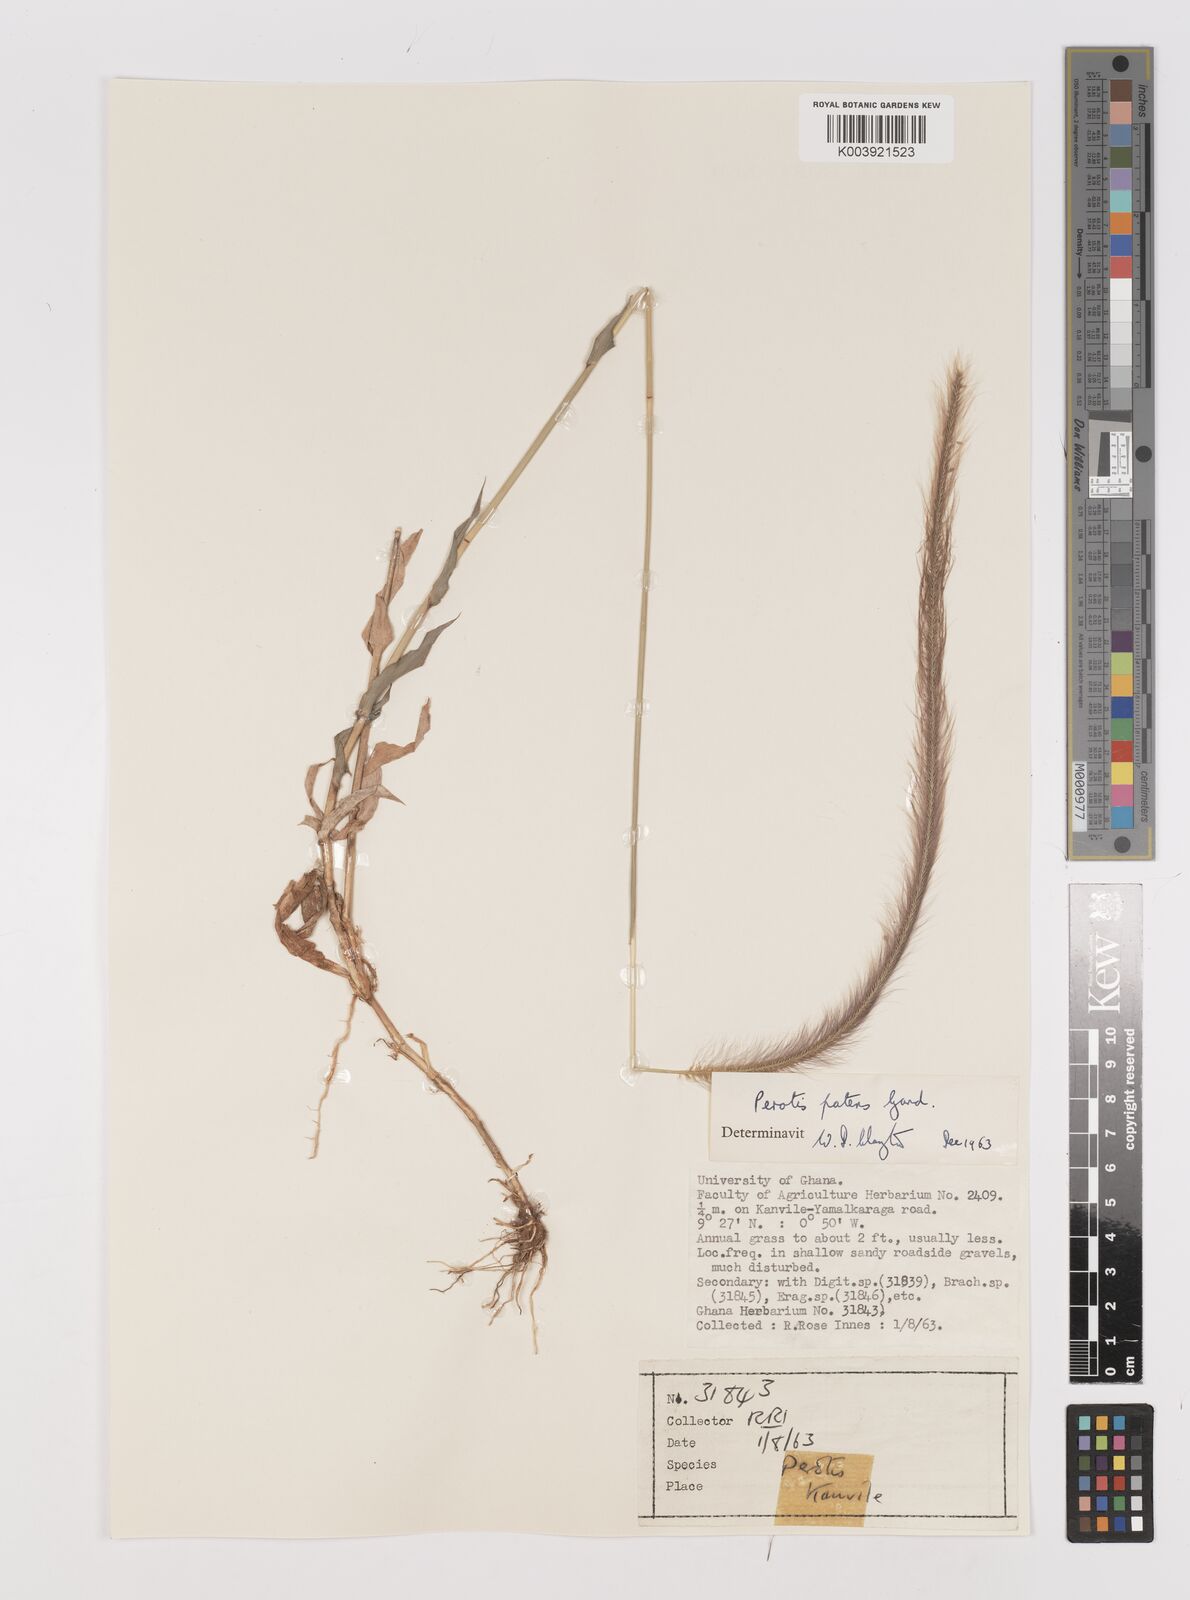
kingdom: Plantae
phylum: Tracheophyta
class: Liliopsida
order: Poales
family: Poaceae
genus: Perotis
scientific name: Perotis patens
